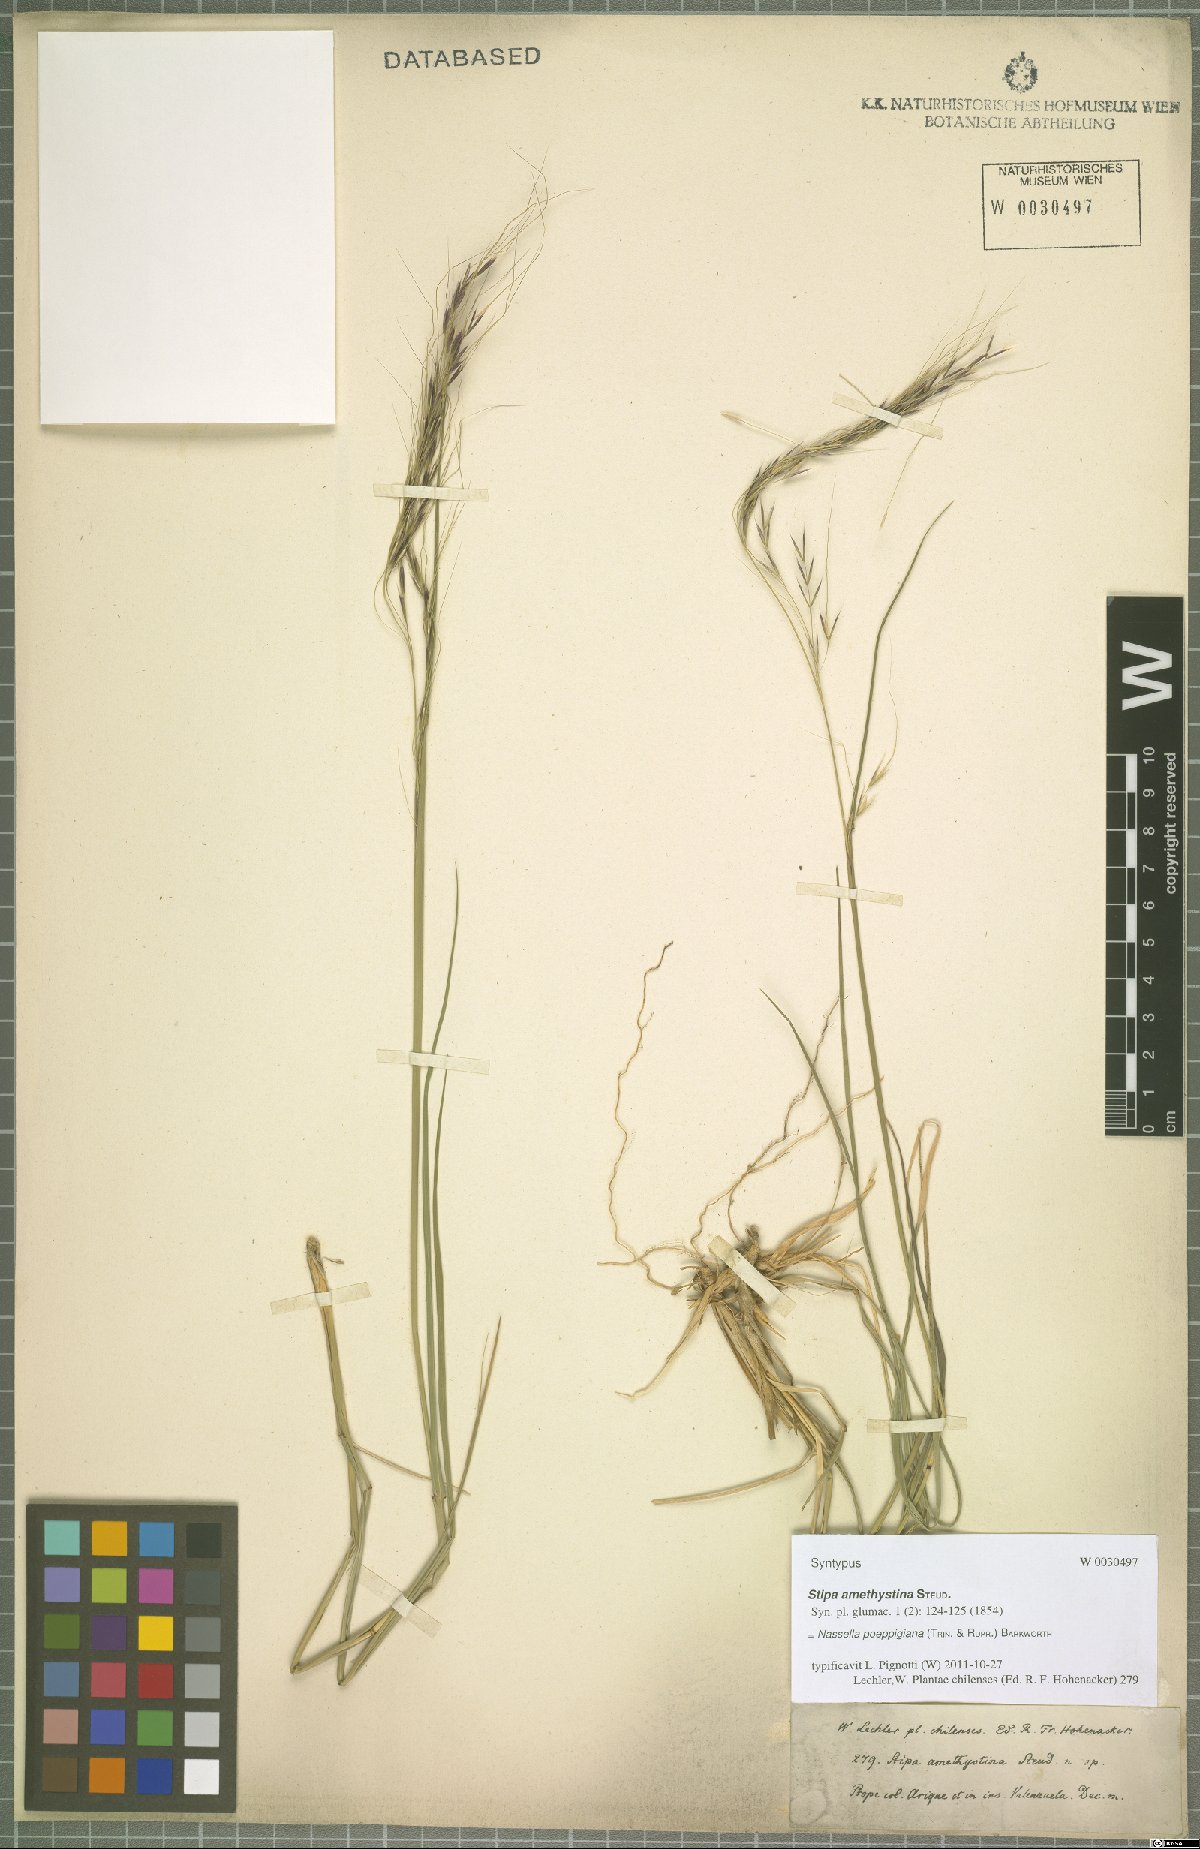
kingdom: Plantae
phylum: Tracheophyta
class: Liliopsida
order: Poales
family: Poaceae
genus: Nassella
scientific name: Nassella poeppigiana
